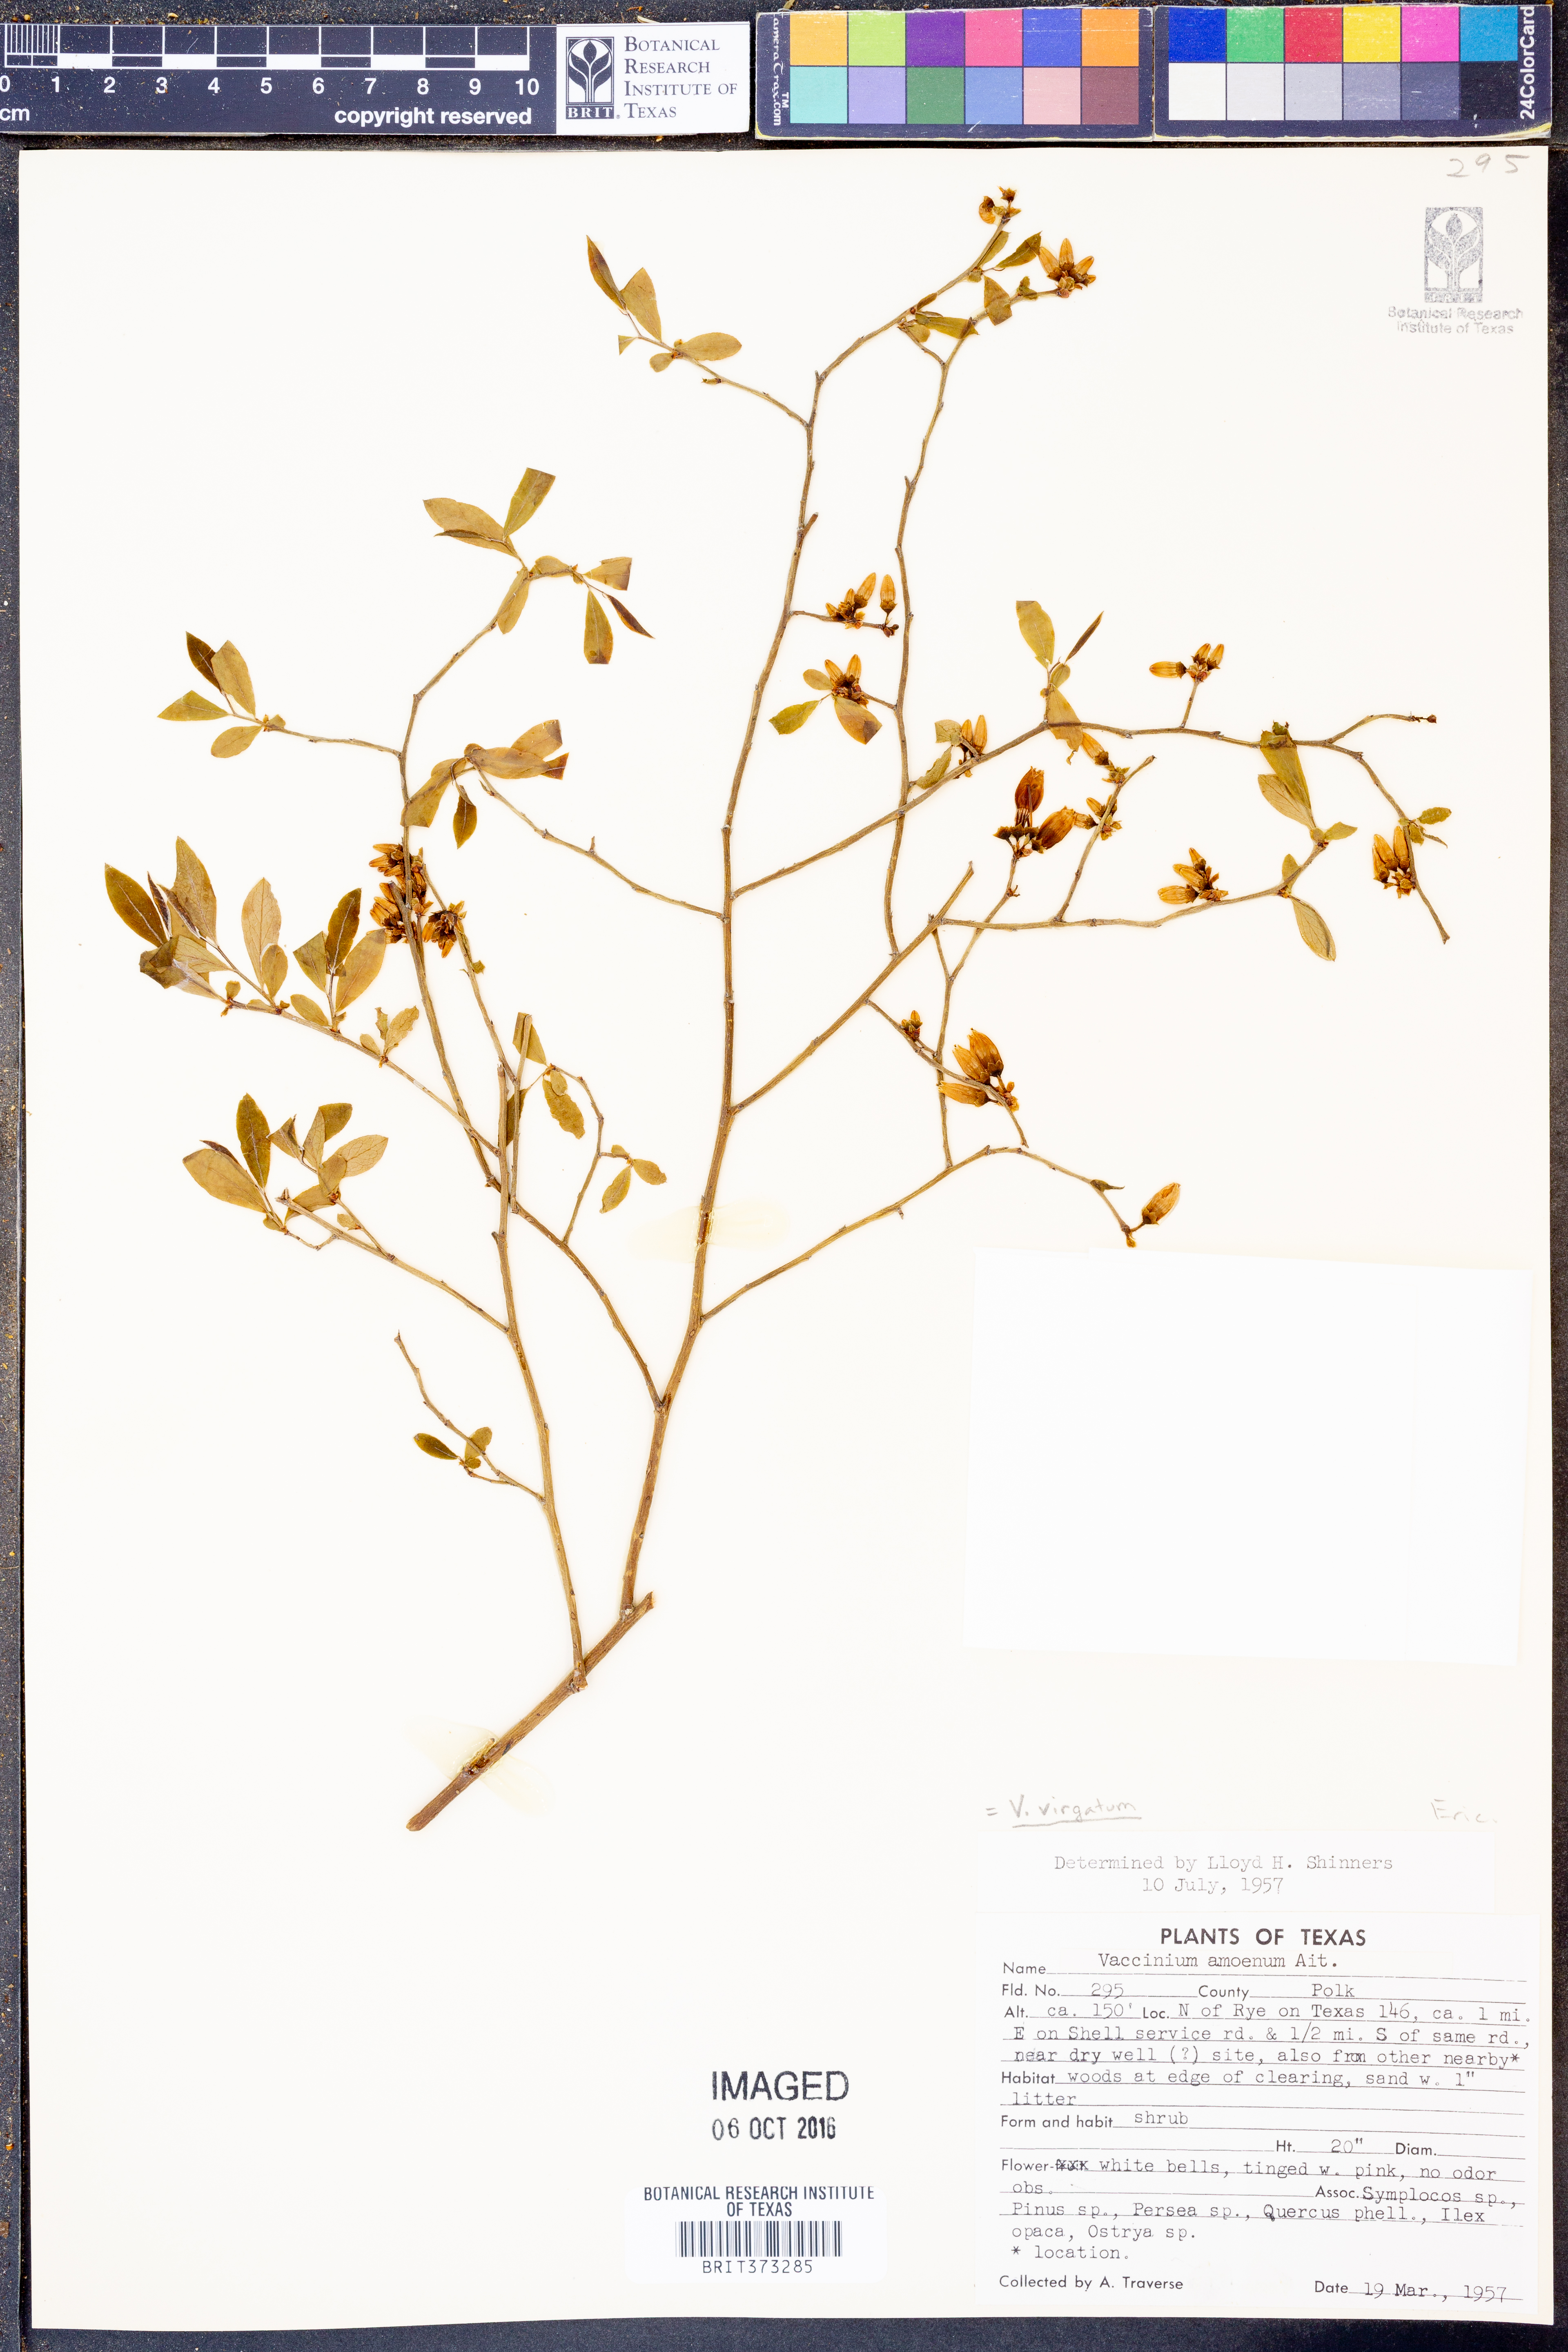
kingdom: Plantae
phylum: Tracheophyta
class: Magnoliopsida
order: Ericales
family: Ericaceae
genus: Vaccinium
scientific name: Vaccinium corymbosum
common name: Blueberry
